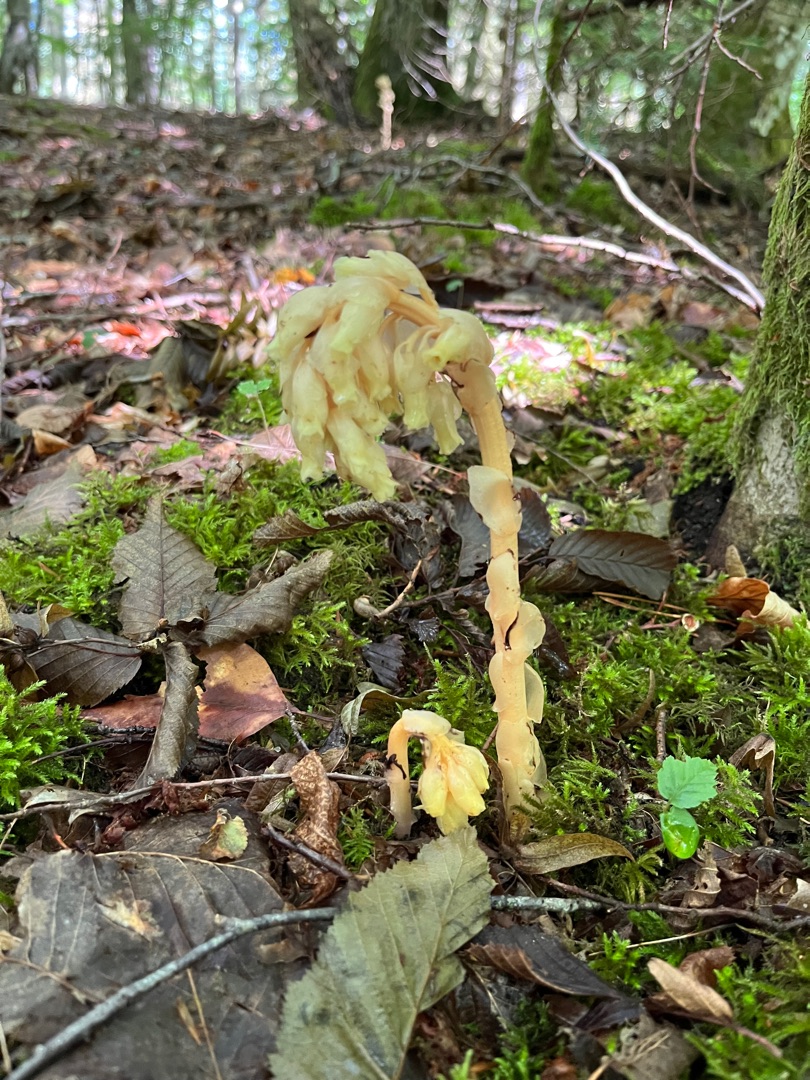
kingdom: Plantae
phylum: Tracheophyta
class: Magnoliopsida
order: Ericales
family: Ericaceae
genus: Hypopitys
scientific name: Hypopitys monotropa
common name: Snylterod
